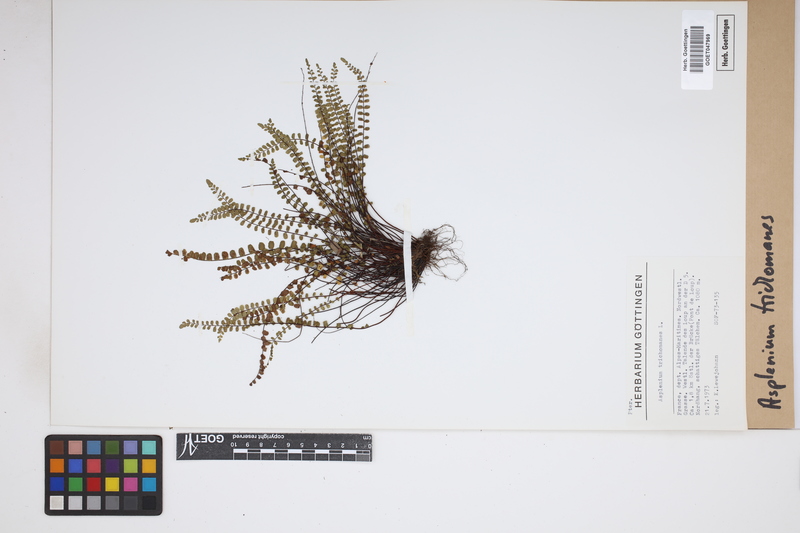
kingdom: Plantae
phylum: Tracheophyta
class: Polypodiopsida
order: Polypodiales
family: Aspleniaceae
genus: Asplenium
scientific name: Asplenium trichomanes
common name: Maidenhair spleenwort
